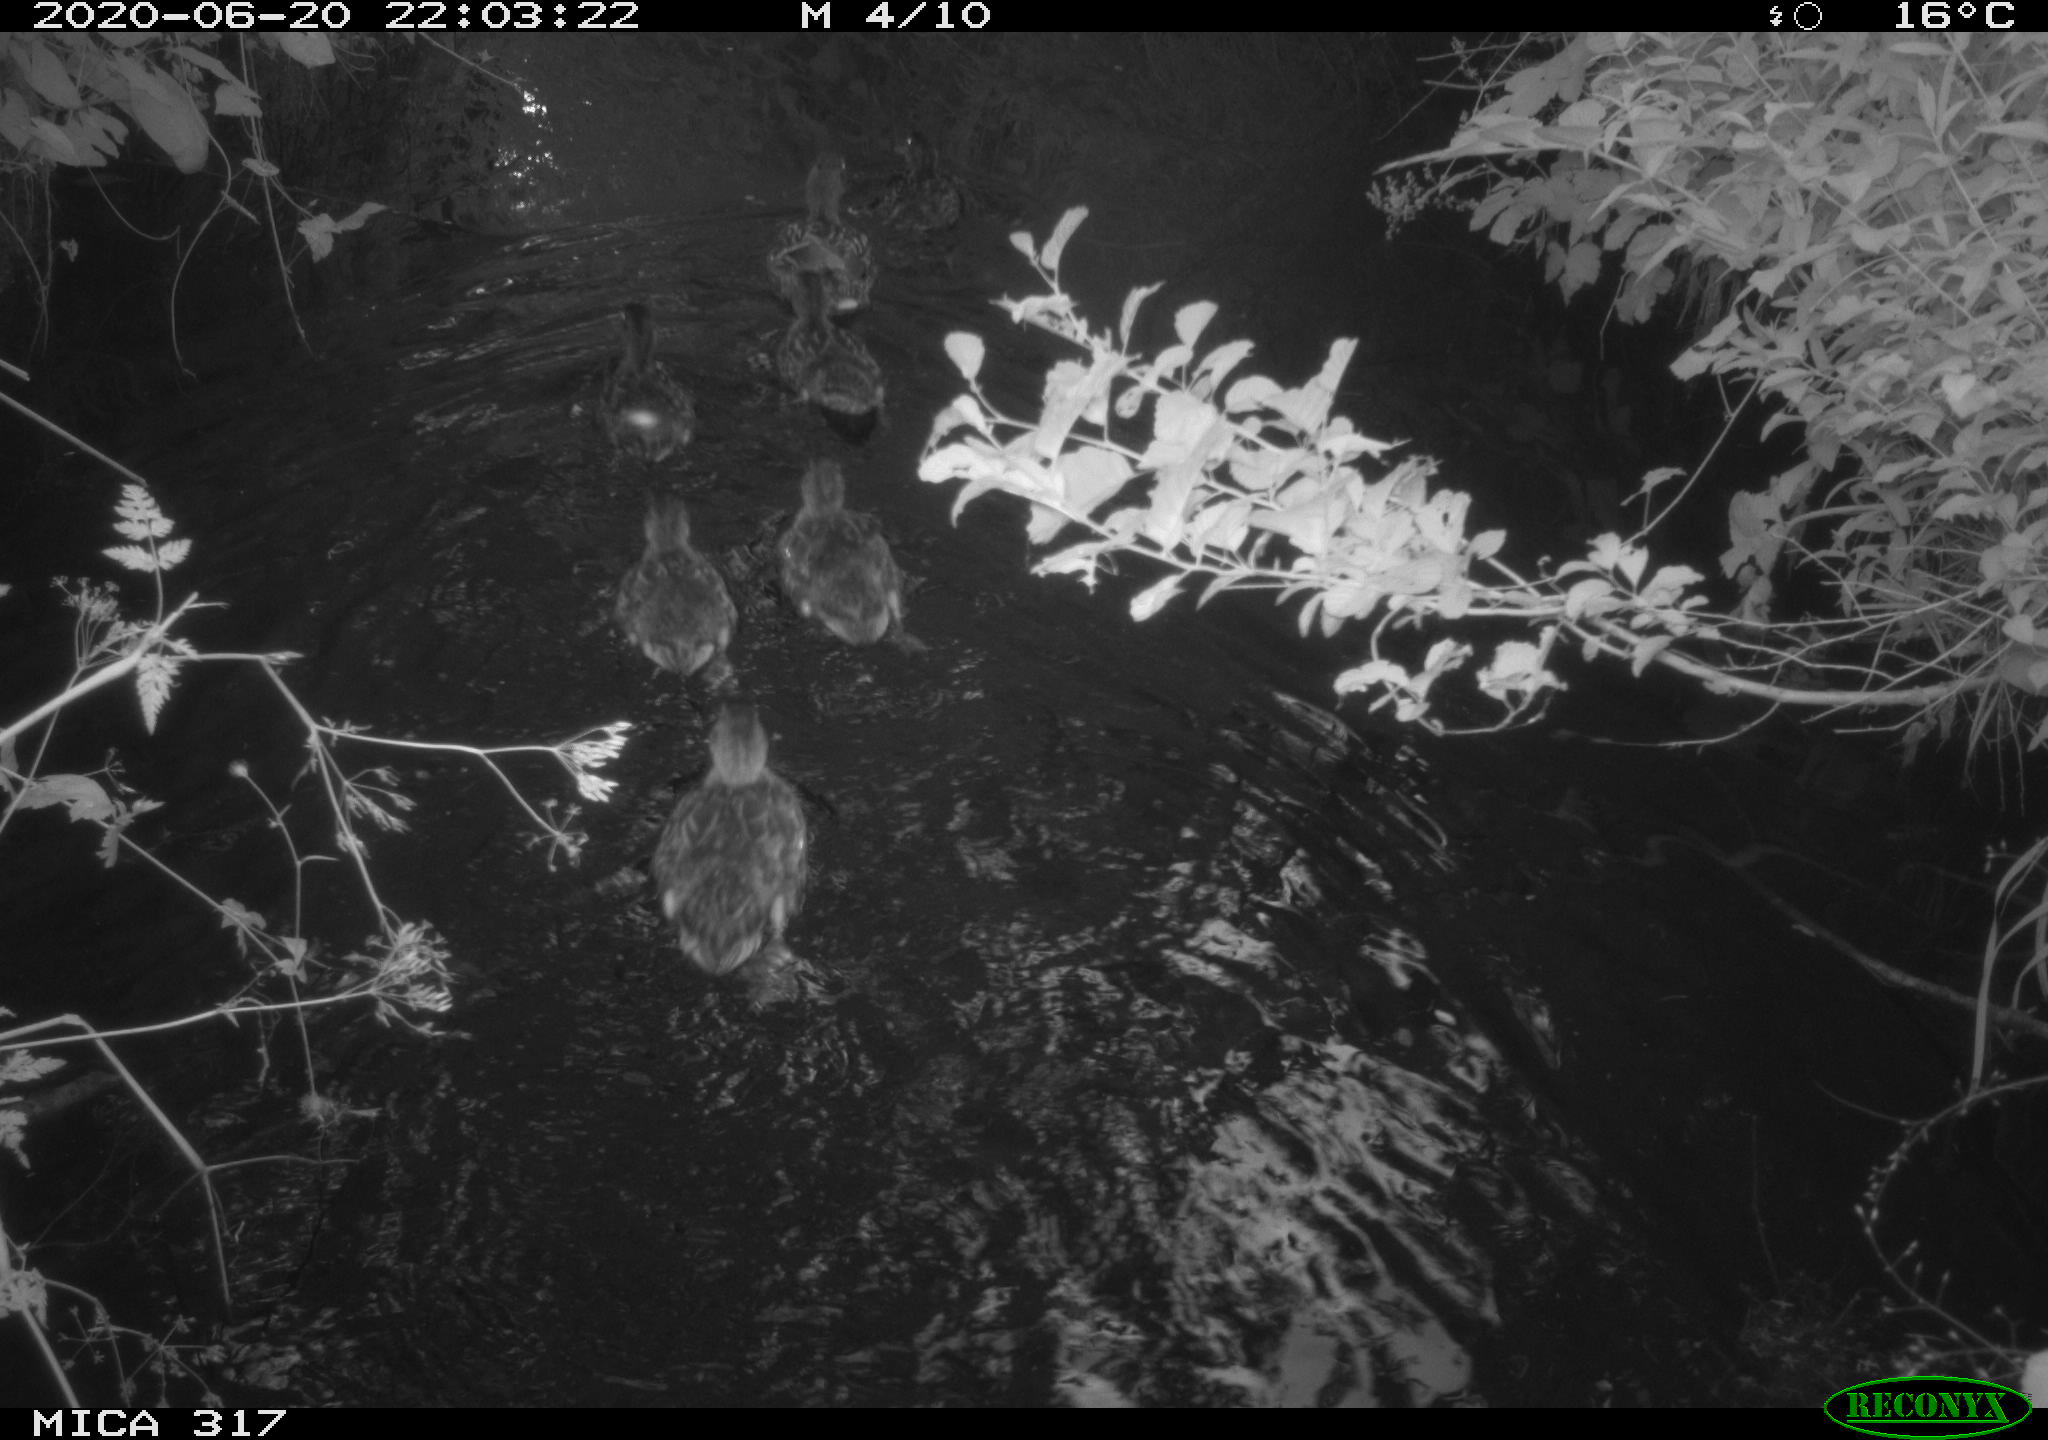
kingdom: Animalia
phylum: Chordata
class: Aves
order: Anseriformes
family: Anatidae
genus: Anas
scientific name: Anas platyrhynchos
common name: Mallard
